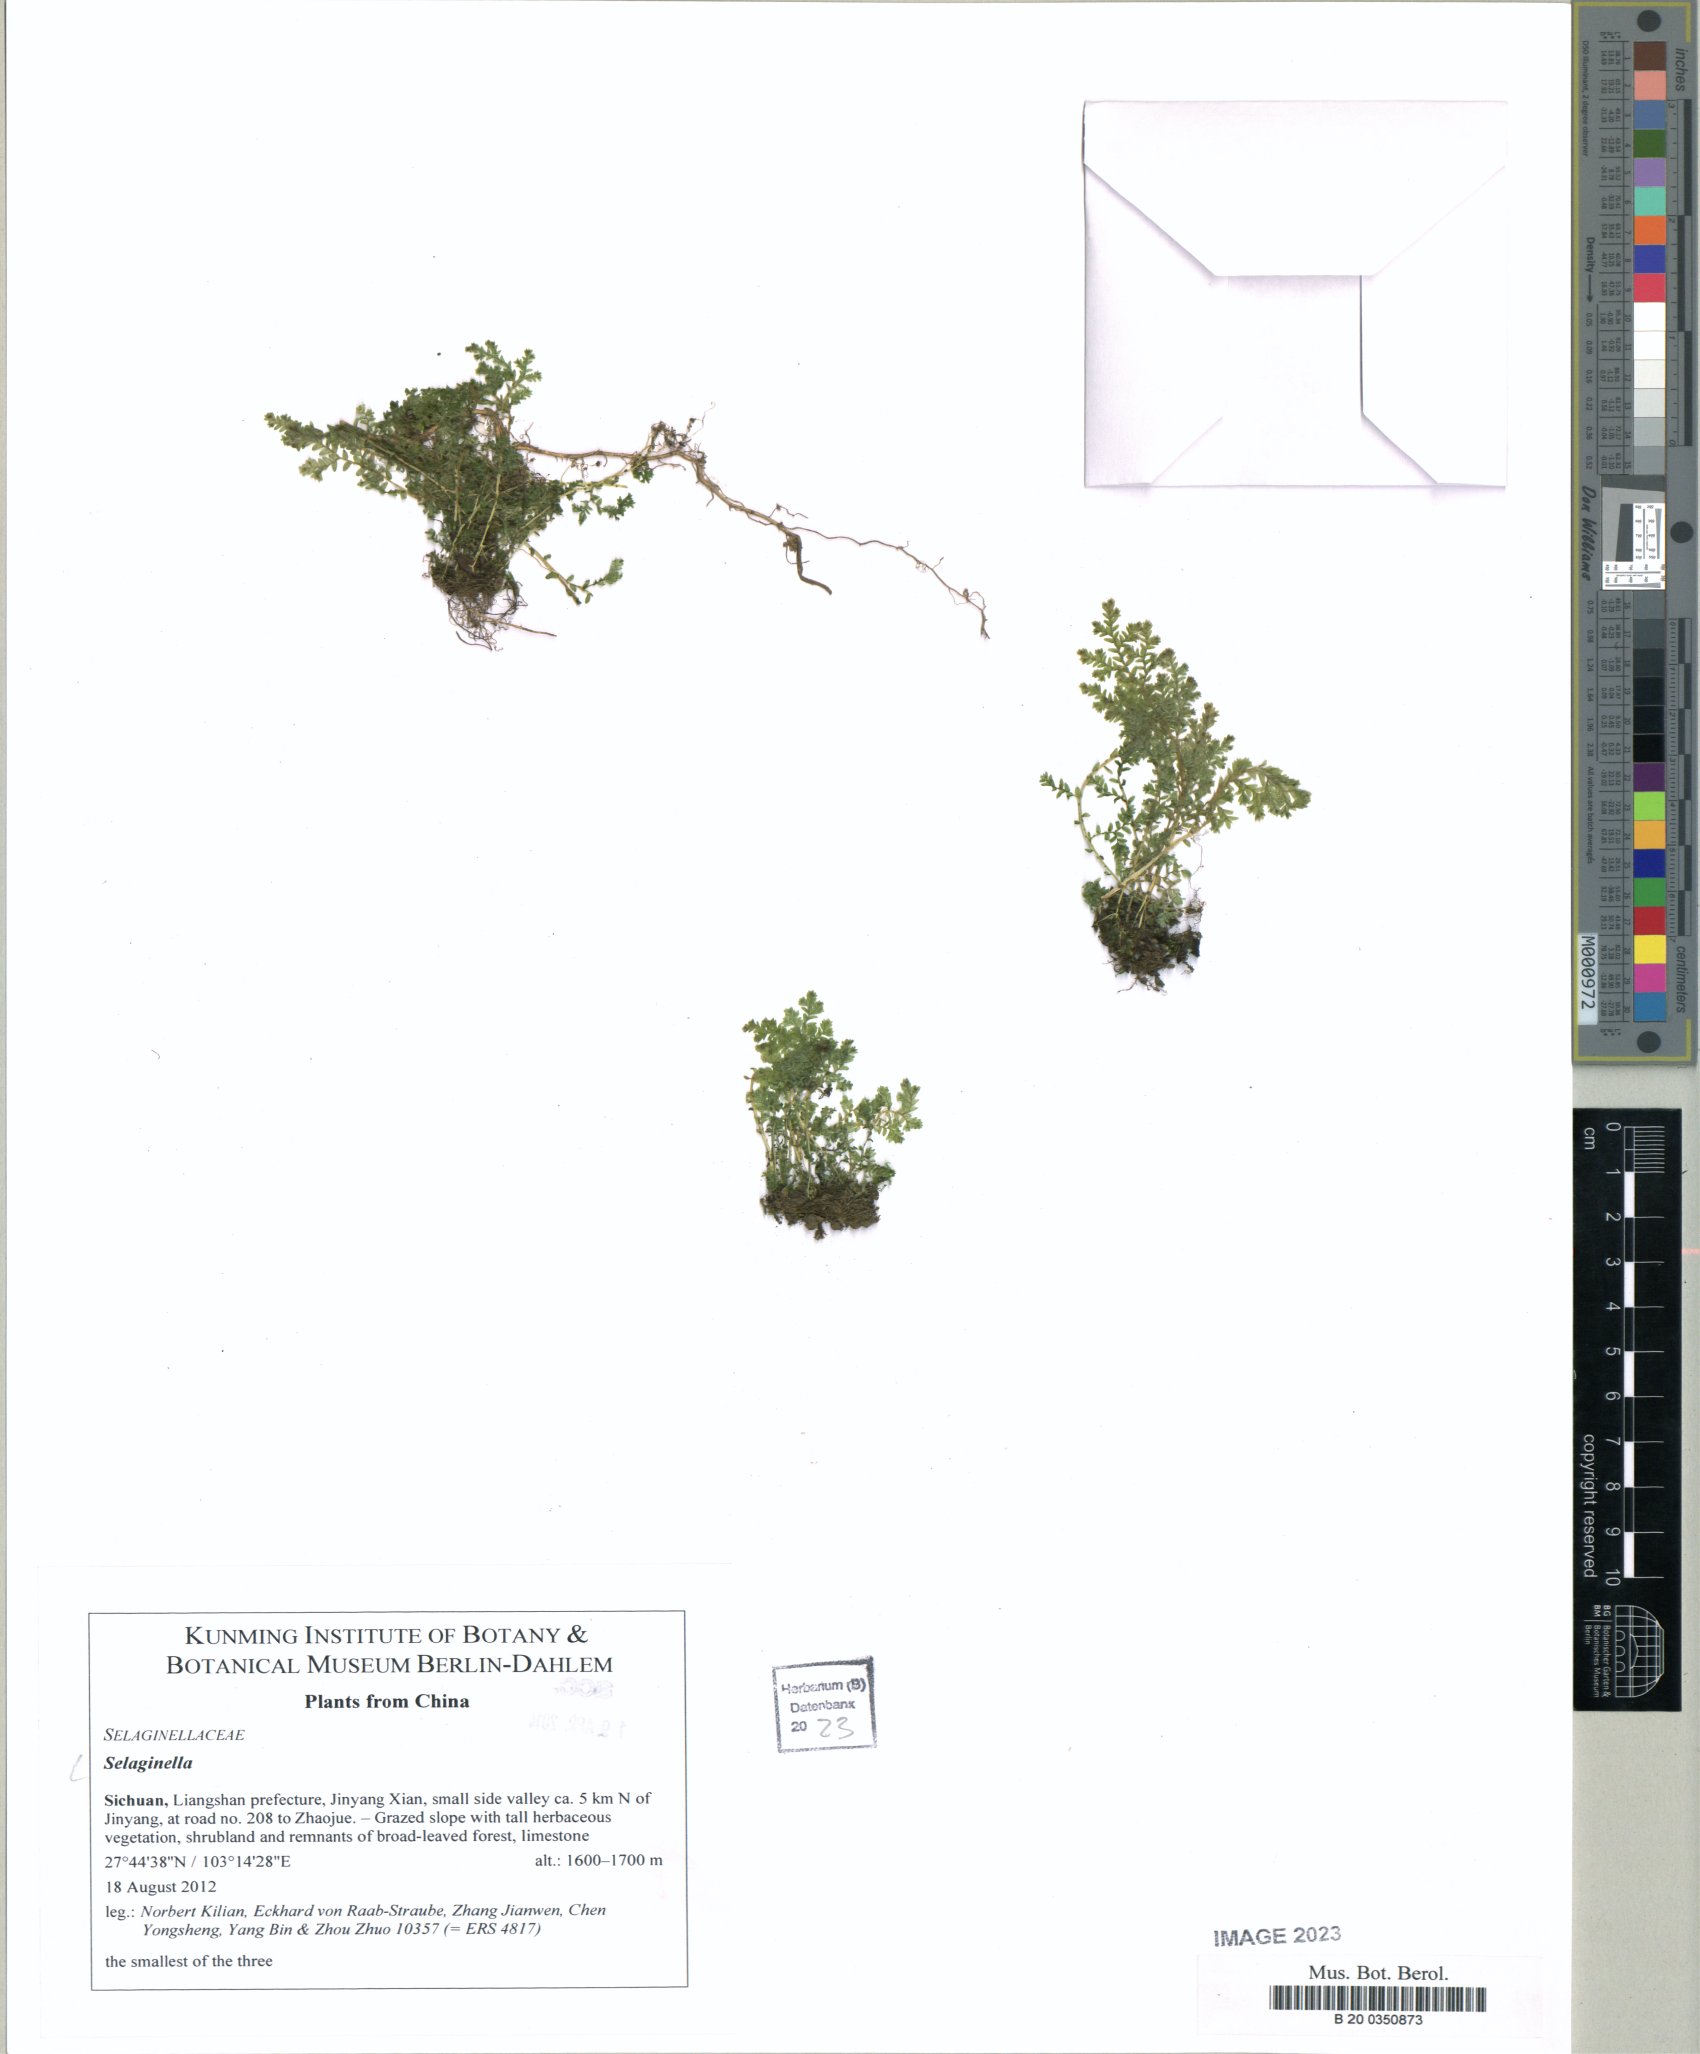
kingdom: Plantae
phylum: Tracheophyta
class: Lycopodiopsida
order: Selaginellales
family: Selaginellaceae
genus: Selaginella
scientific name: Selaginella
